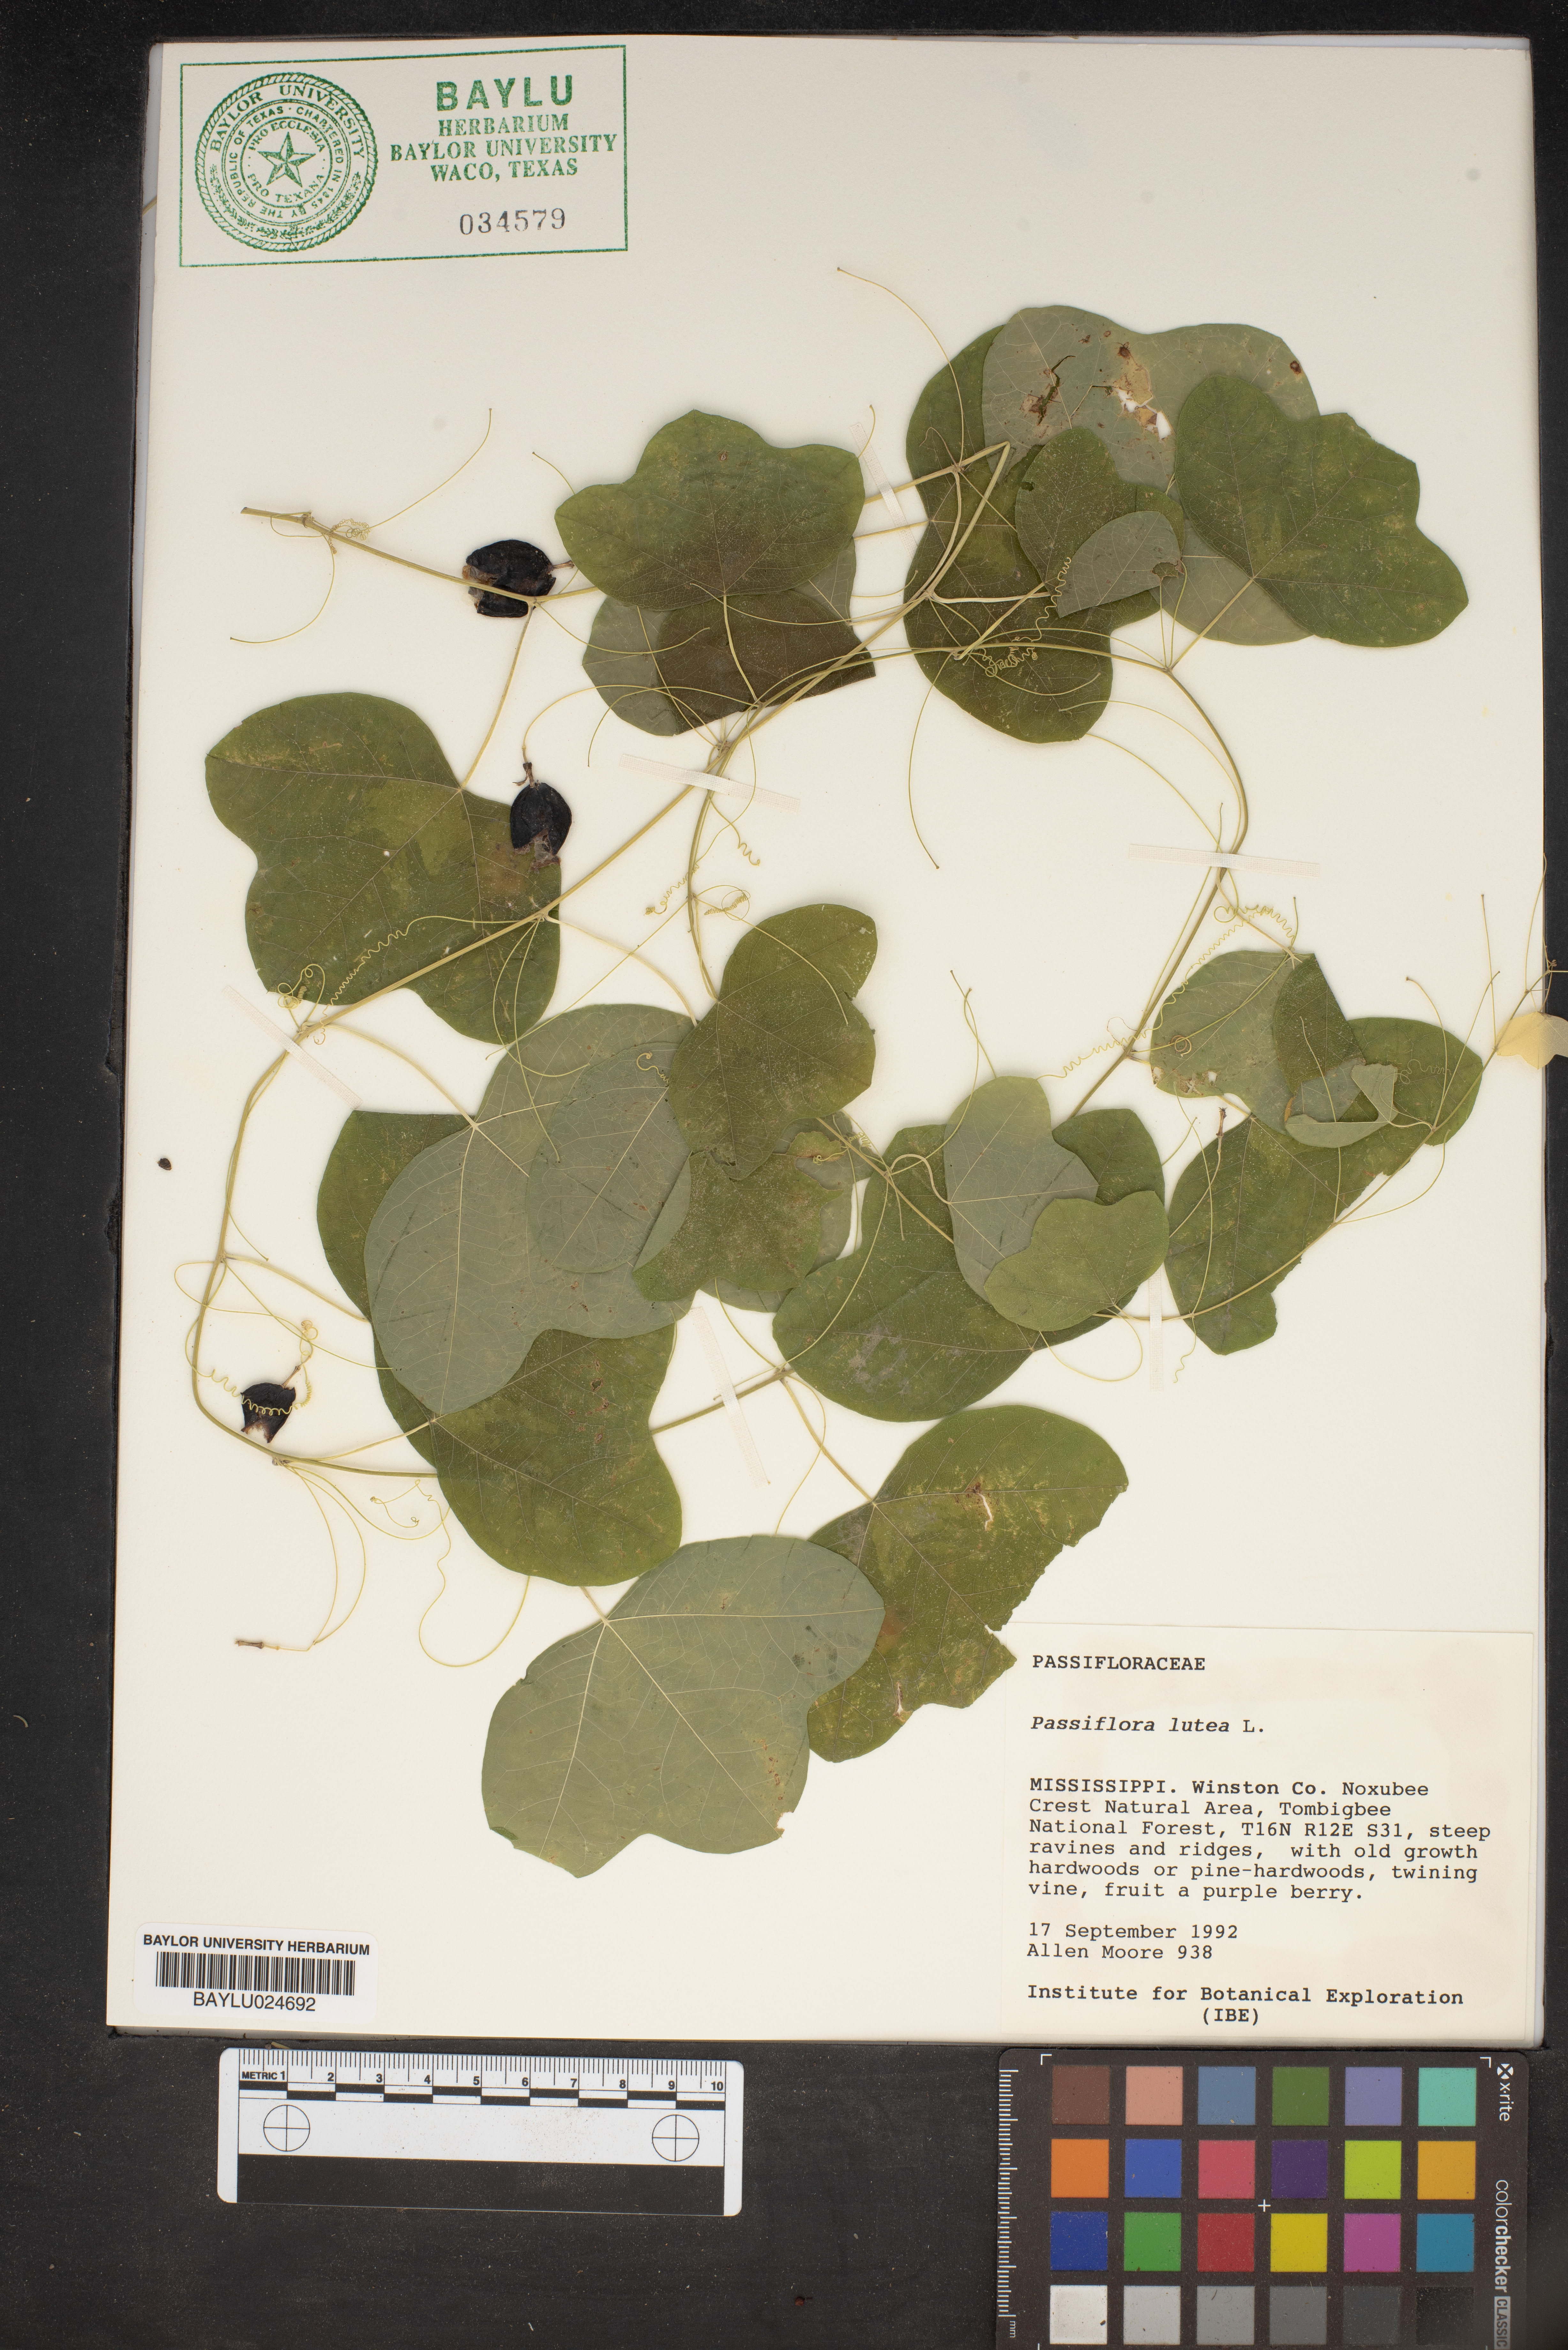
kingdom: Plantae
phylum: Tracheophyta
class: Magnoliopsida
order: Malpighiales
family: Passifloraceae
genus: Passiflora
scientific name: Passiflora lutea
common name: Yellow passionflower
